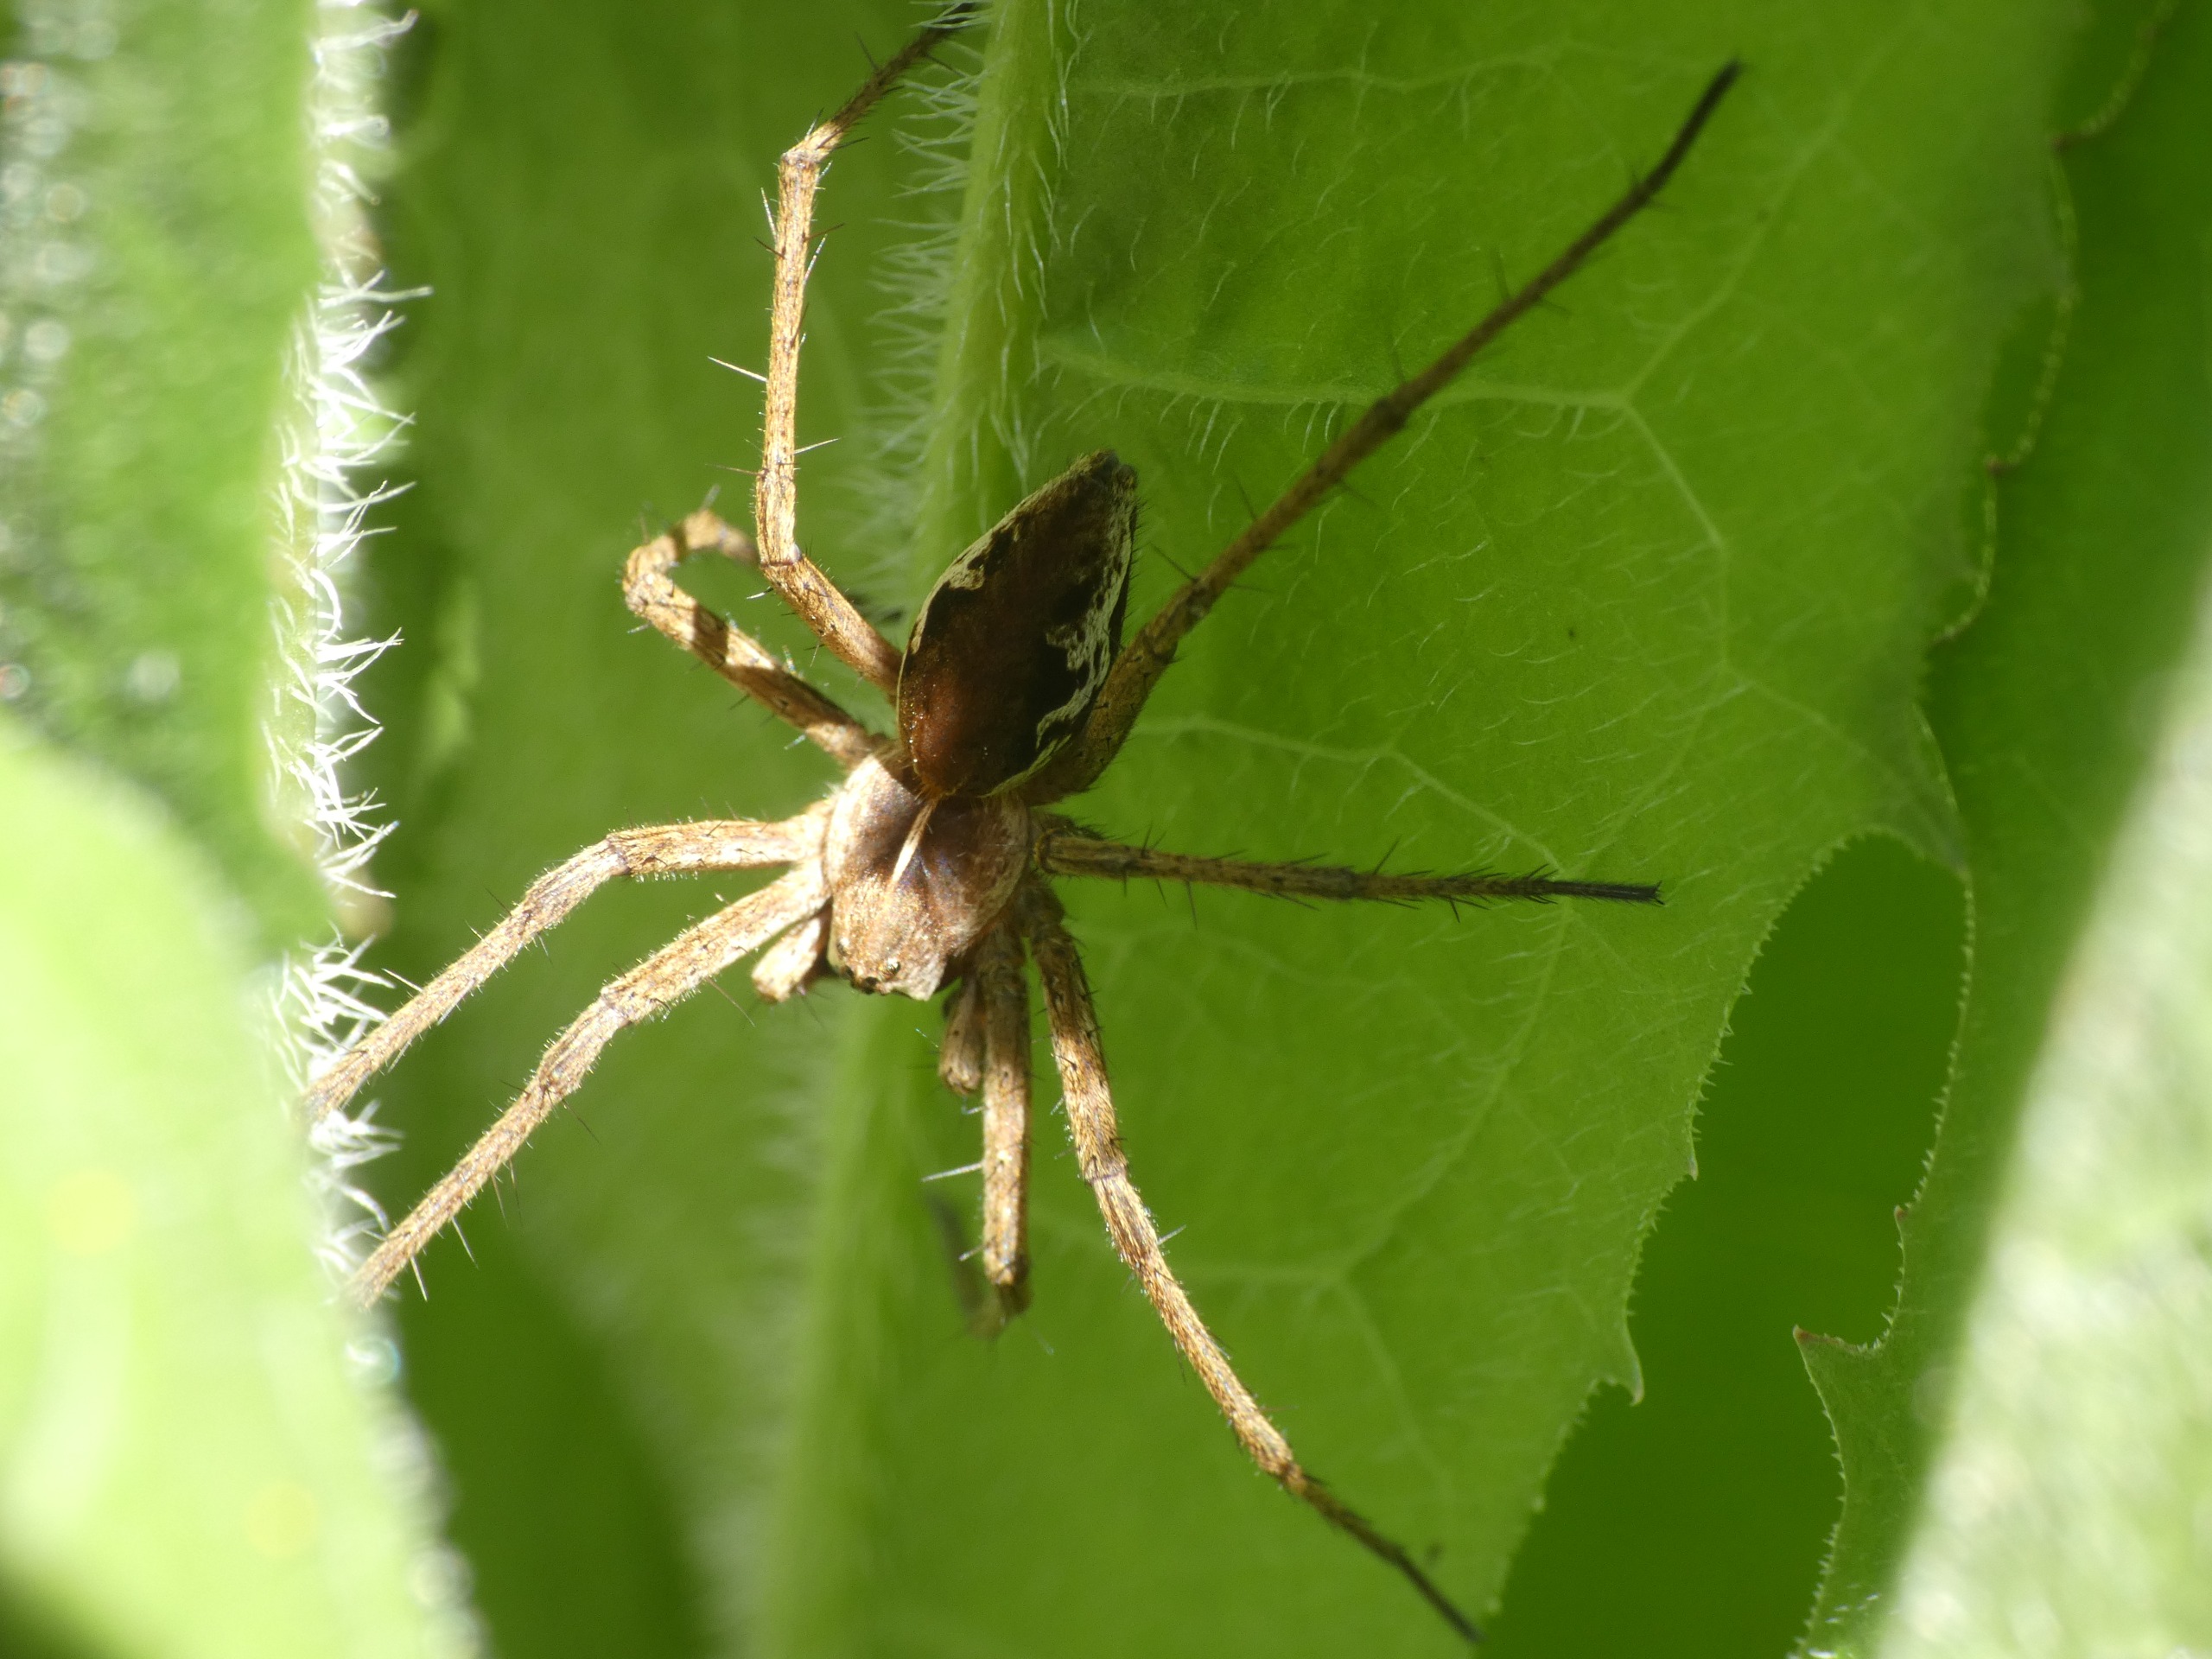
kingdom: Animalia
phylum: Arthropoda
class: Arachnida
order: Araneae
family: Pisauridae
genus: Pisaura
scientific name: Pisaura mirabilis
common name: Almindelig rovedderkop
